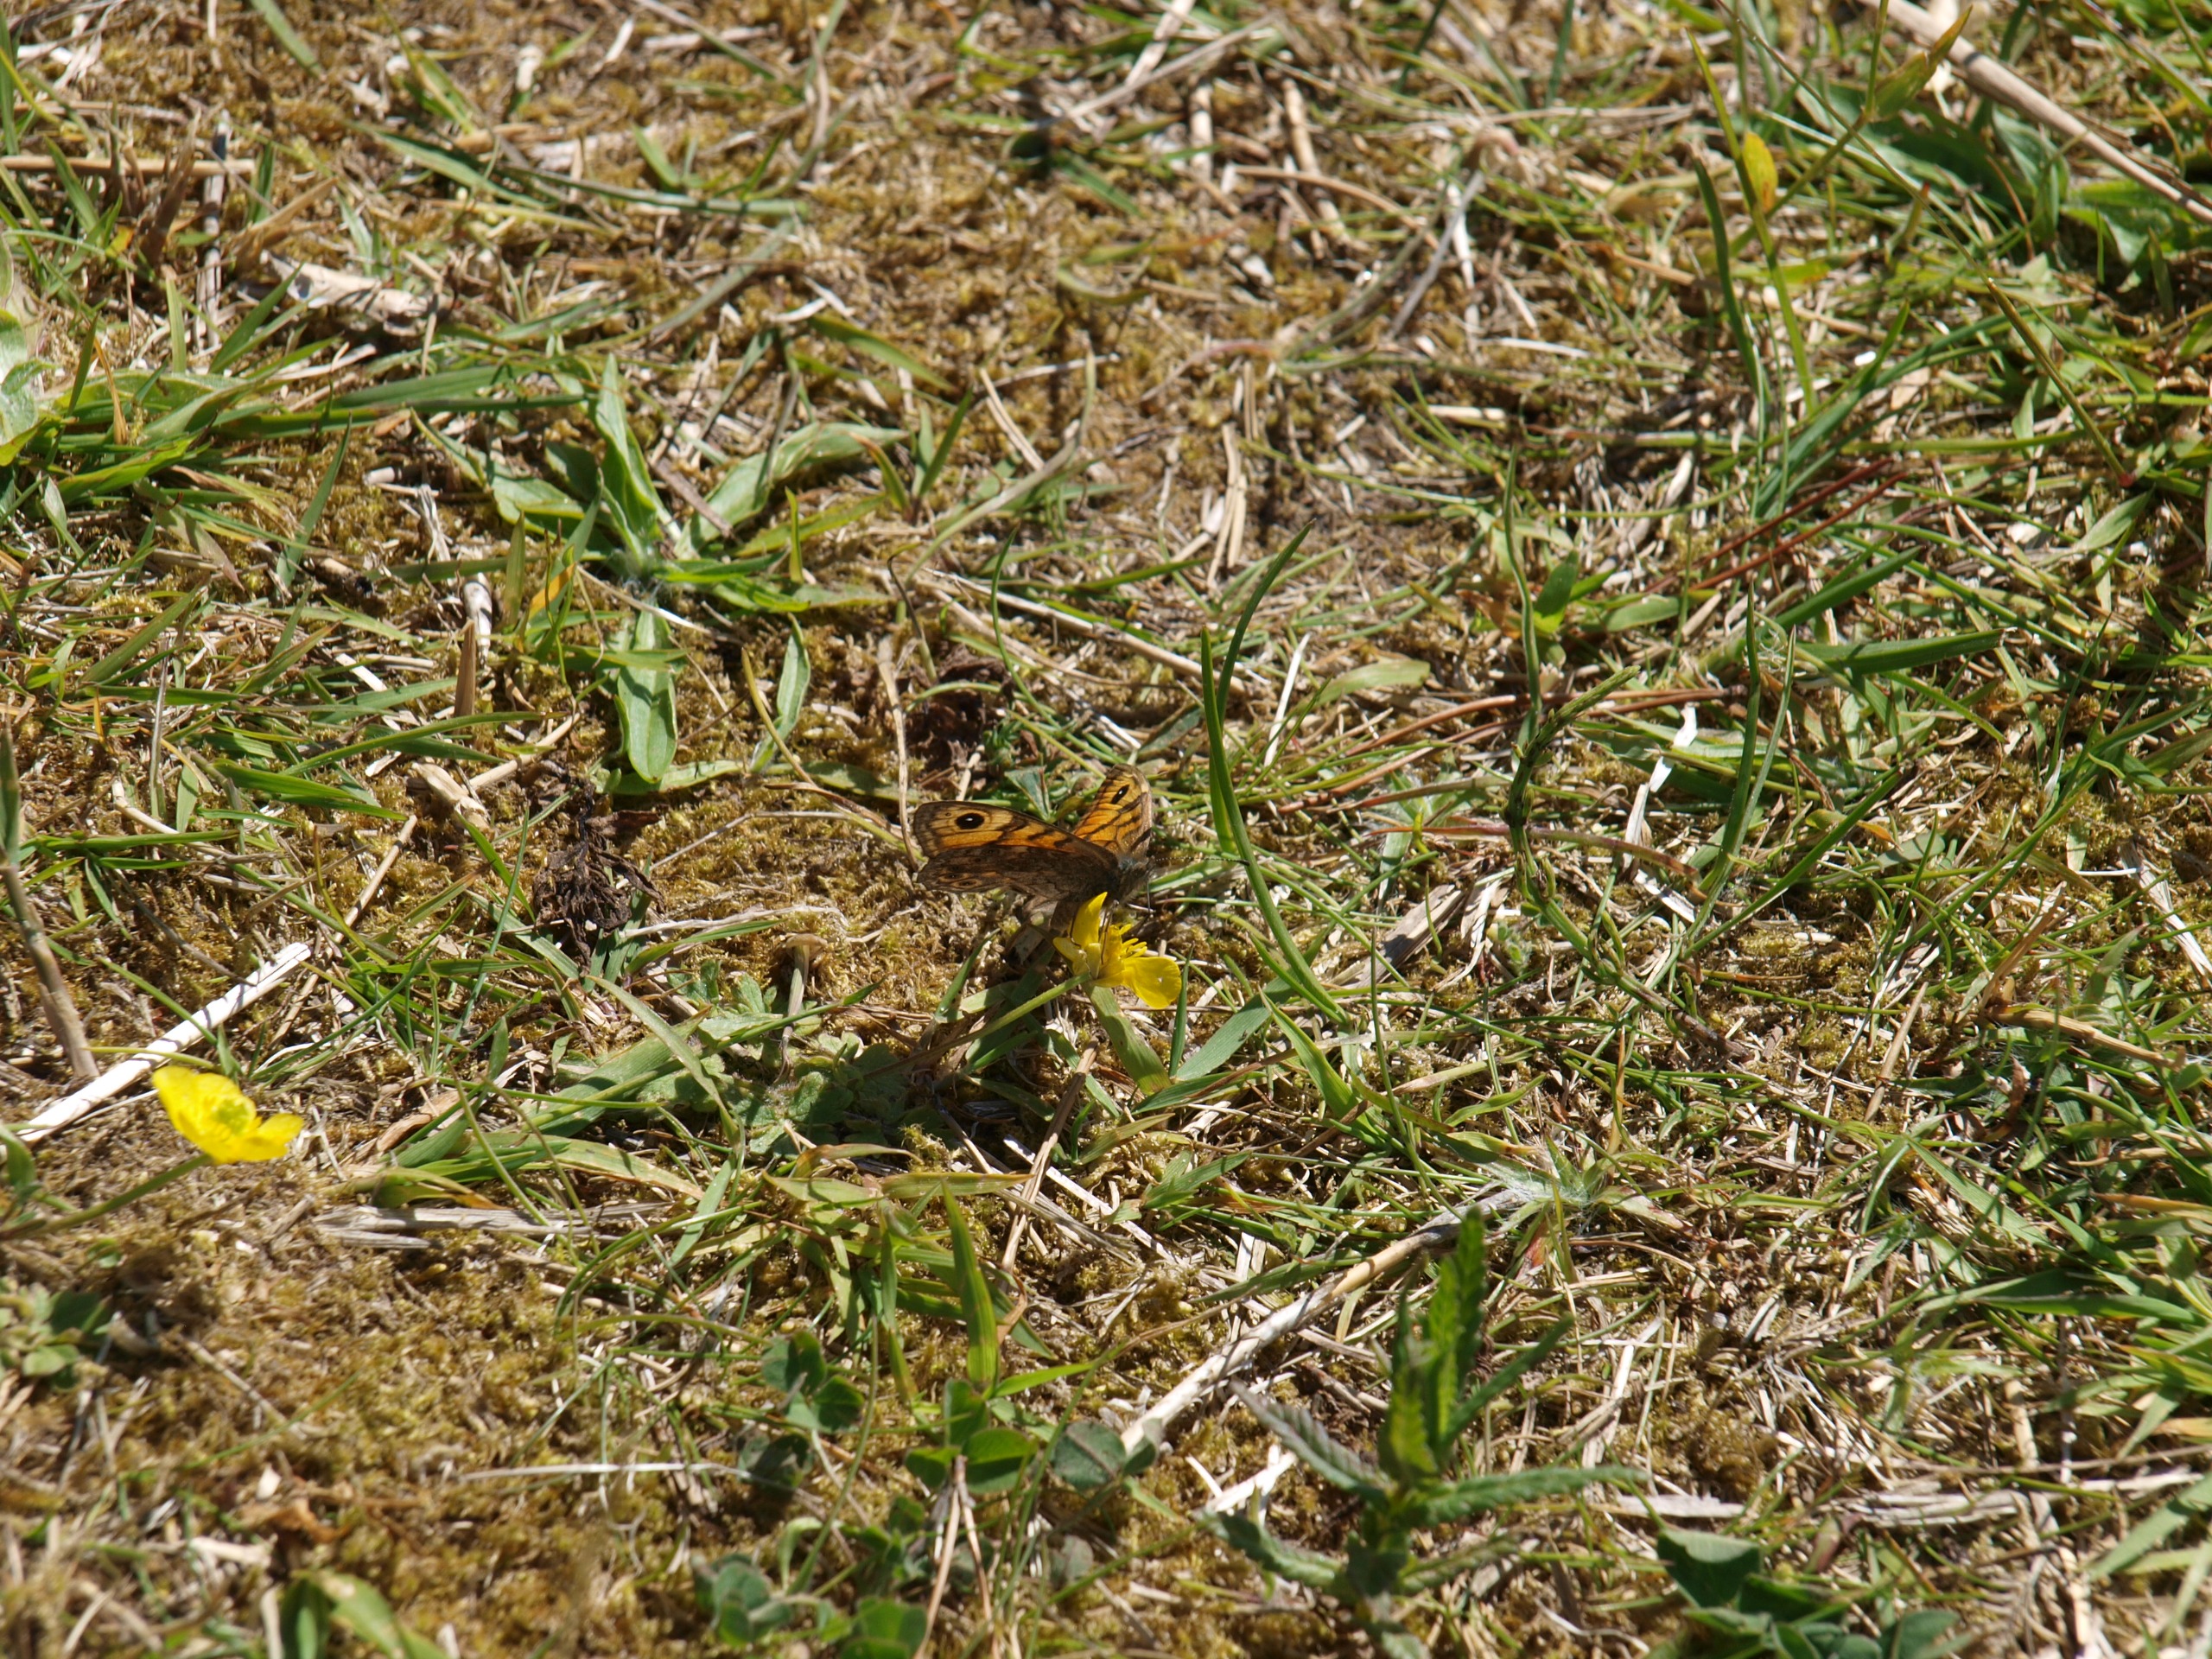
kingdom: Animalia
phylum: Arthropoda
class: Insecta
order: Lepidoptera
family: Nymphalidae
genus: Pararge
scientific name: Pararge Lasiommata megera
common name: Vejrandøje
